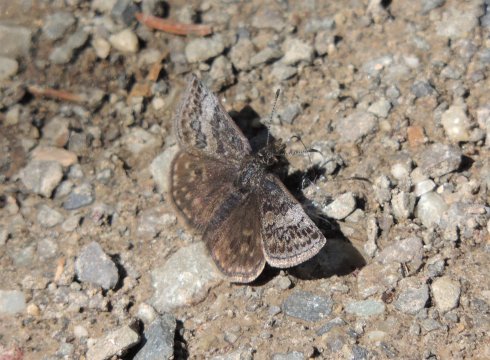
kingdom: Animalia
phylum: Arthropoda
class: Insecta
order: Lepidoptera
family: Hesperiidae
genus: Erynnis
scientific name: Erynnis icelus
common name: Dreamy Duskywing
